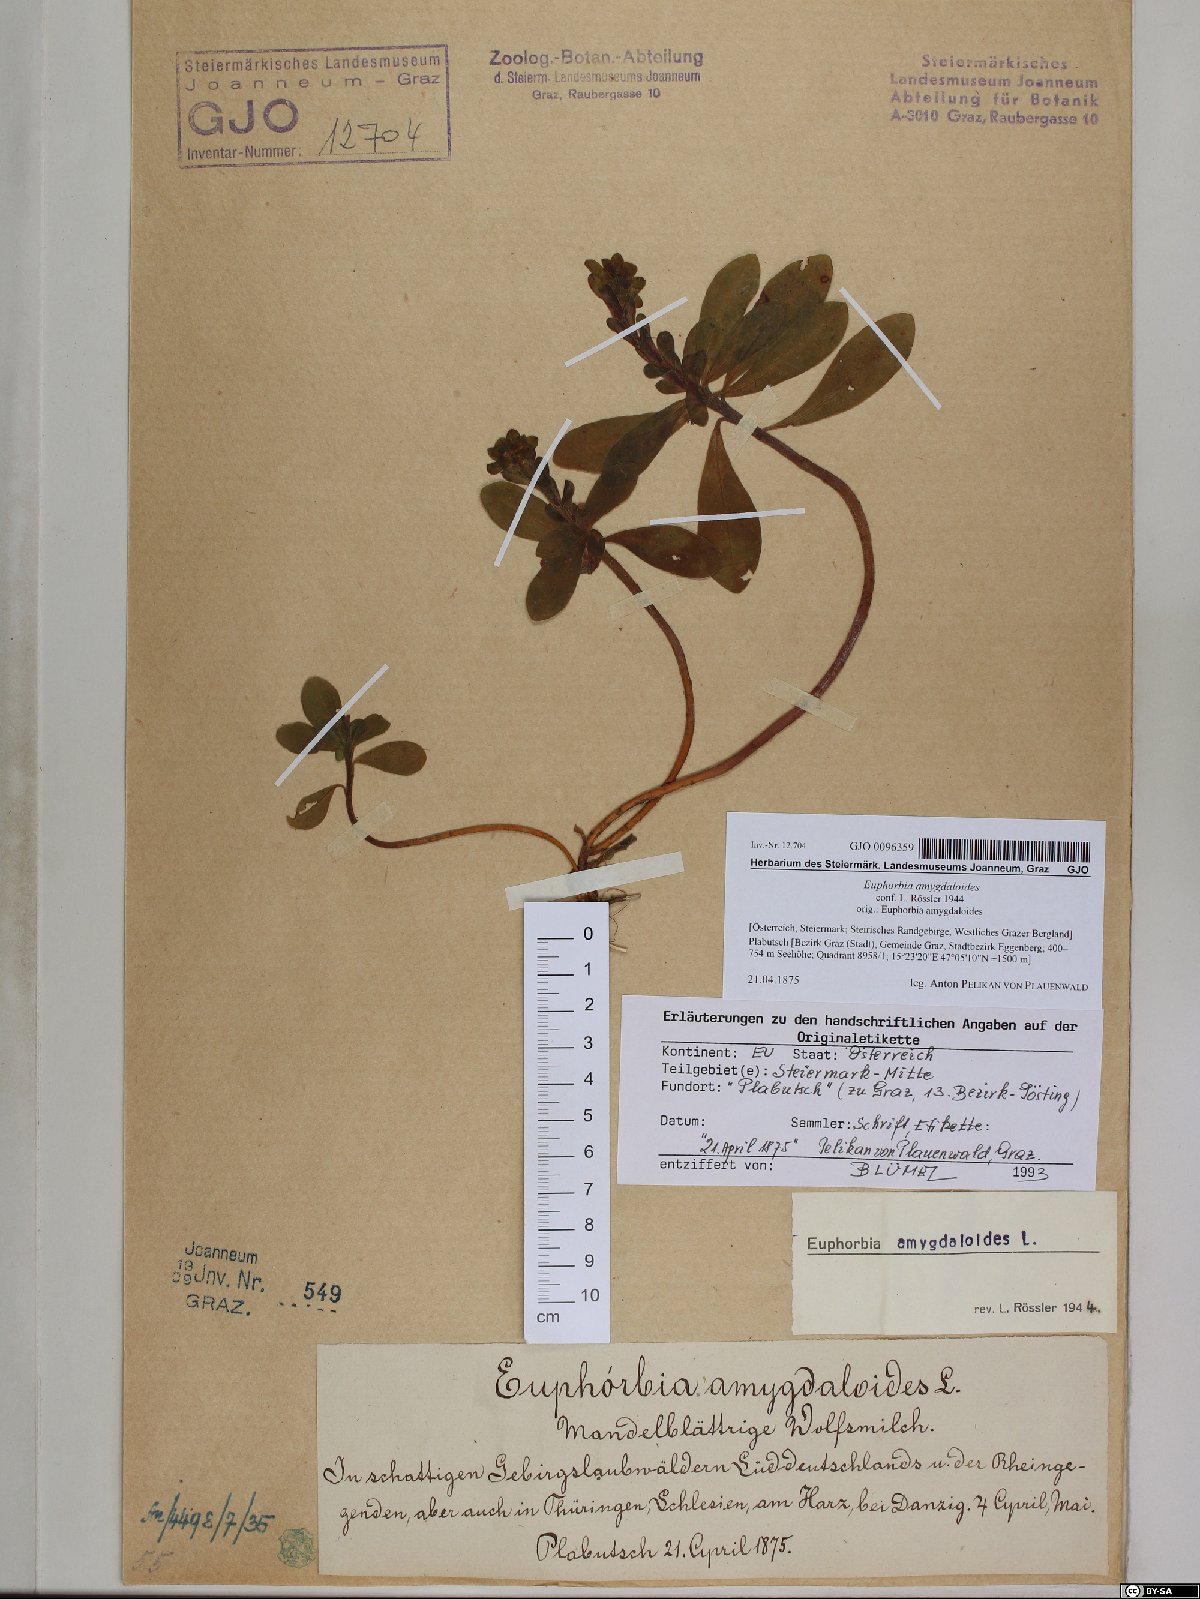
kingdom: Plantae
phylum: Tracheophyta
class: Magnoliopsida
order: Malpighiales
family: Euphorbiaceae
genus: Euphorbia
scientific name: Euphorbia amygdaloides
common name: Wood spurge
